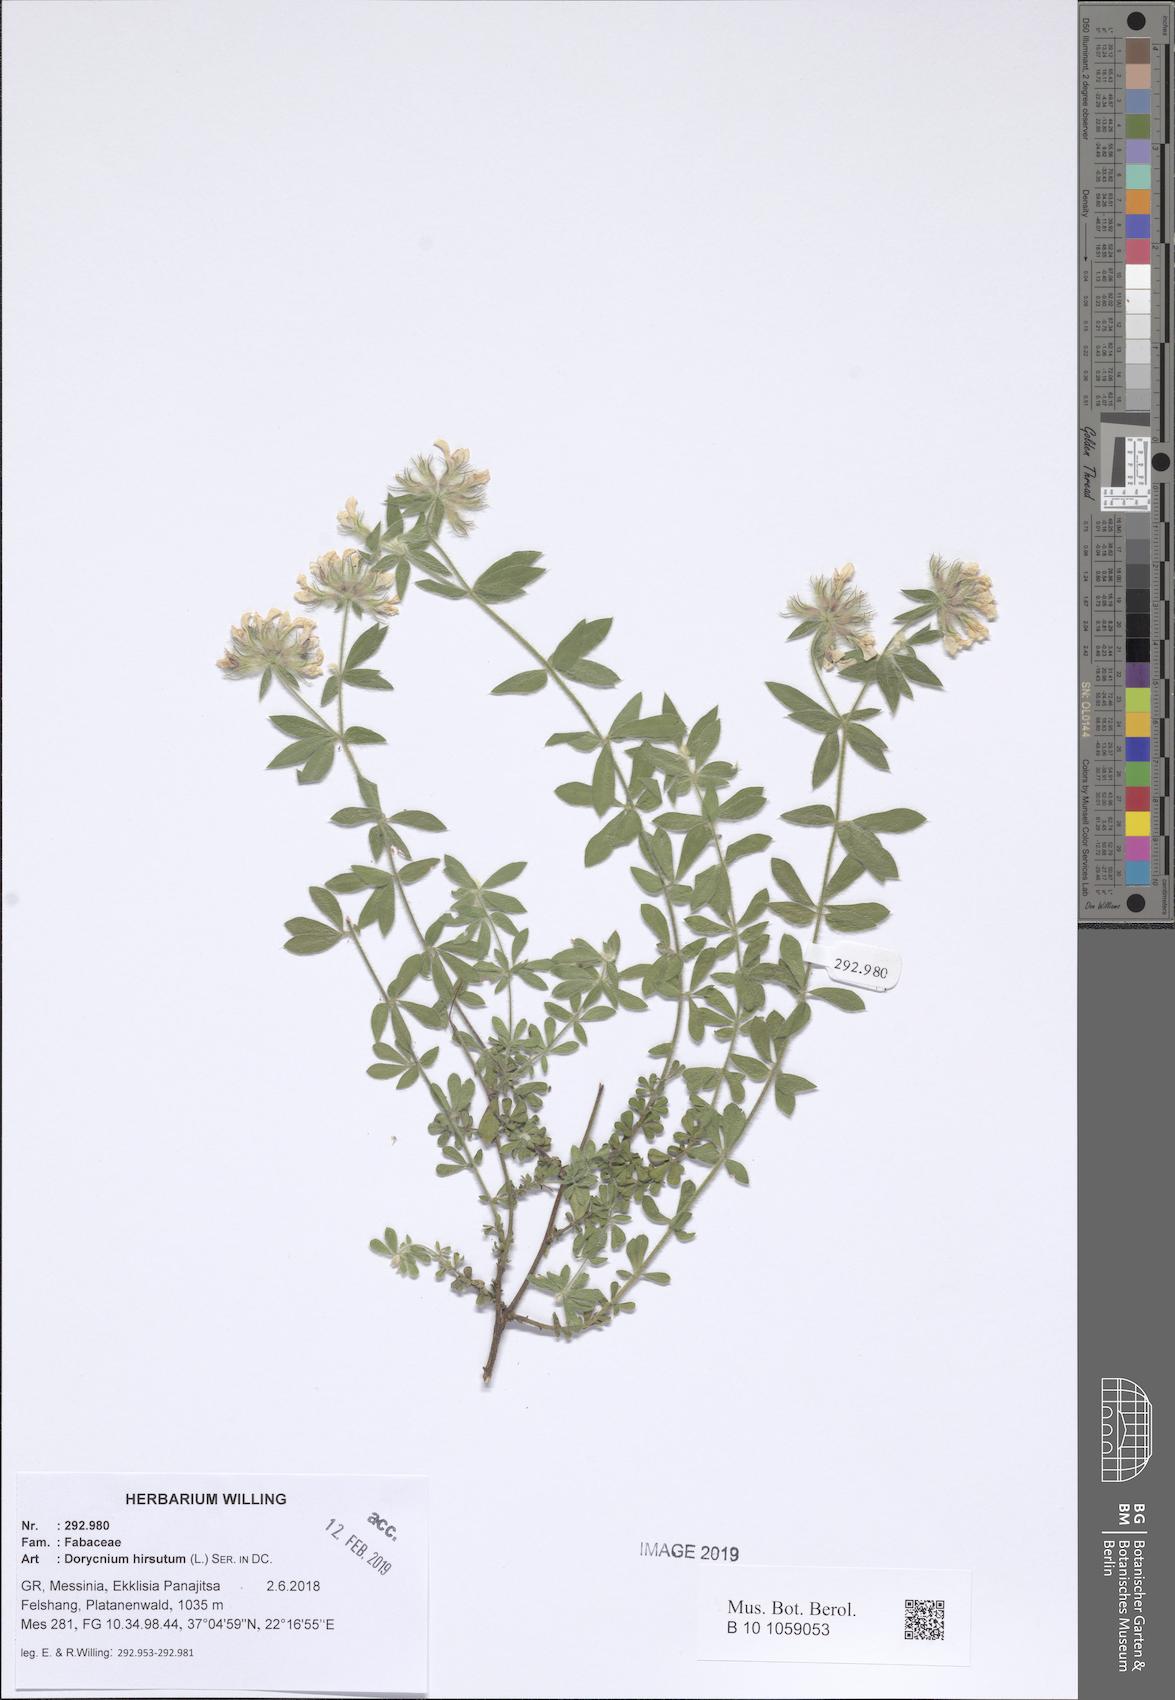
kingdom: Plantae
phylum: Tracheophyta
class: Magnoliopsida
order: Fabales
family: Fabaceae
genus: Lotus
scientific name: Lotus hirsutus
